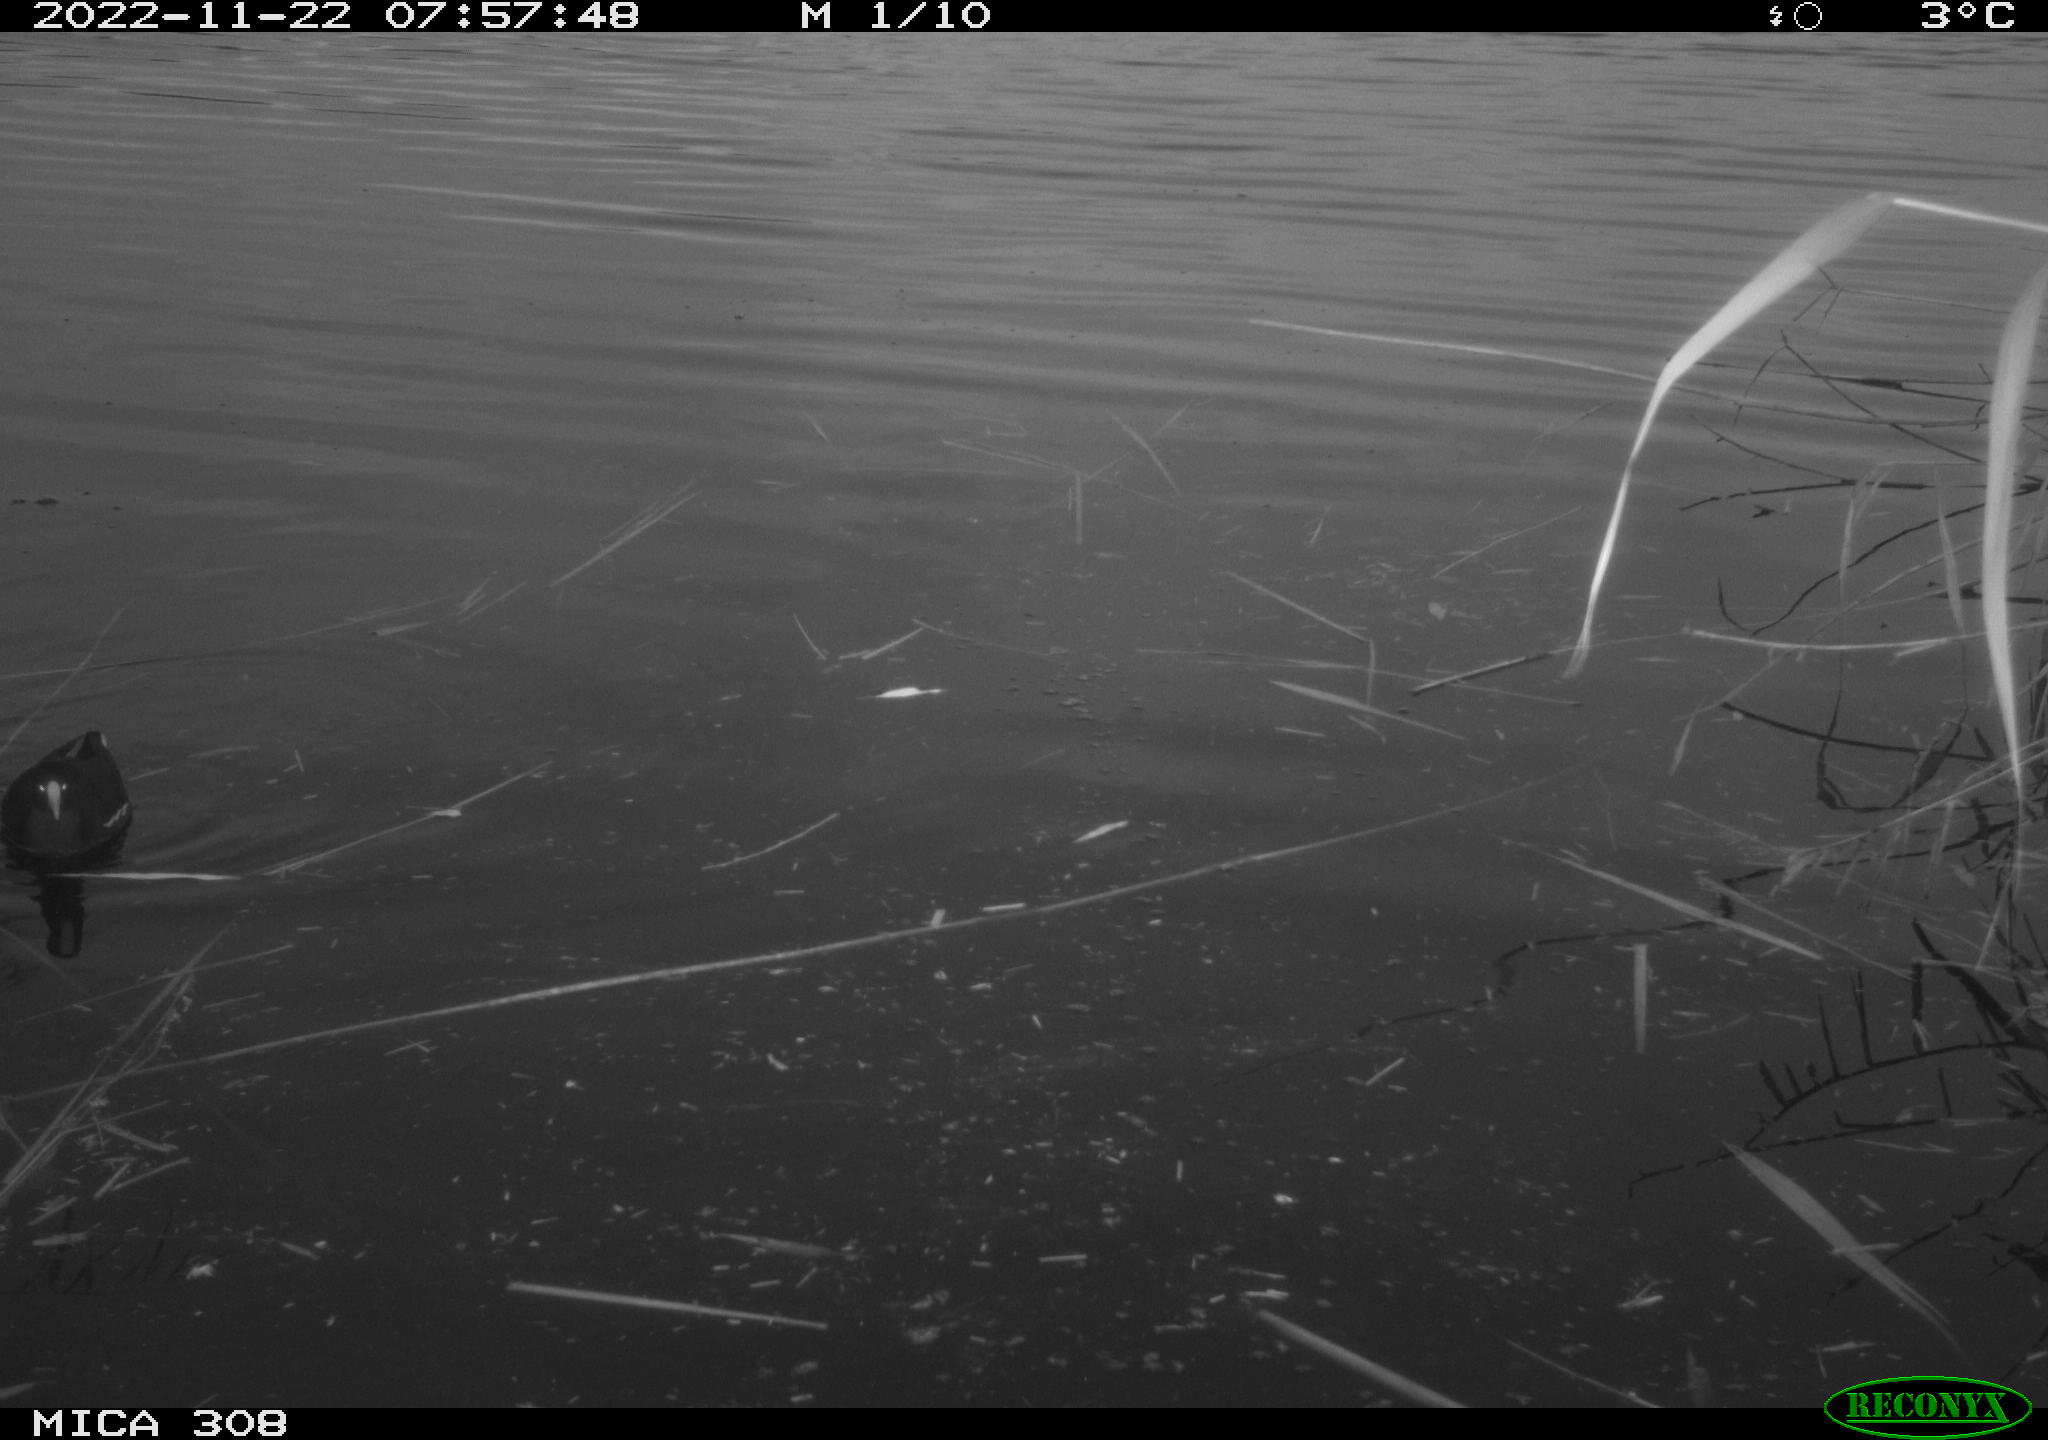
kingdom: Animalia
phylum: Chordata
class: Aves
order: Gruiformes
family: Rallidae
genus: Gallinula
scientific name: Gallinula chloropus
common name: Common moorhen
